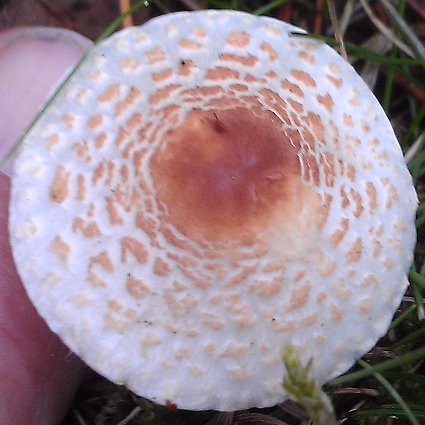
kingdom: Fungi
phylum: Basidiomycota
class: Agaricomycetes
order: Agaricales
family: Agaricaceae
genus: Lepiota
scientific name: Lepiota cristata
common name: stinkende parasolhat
